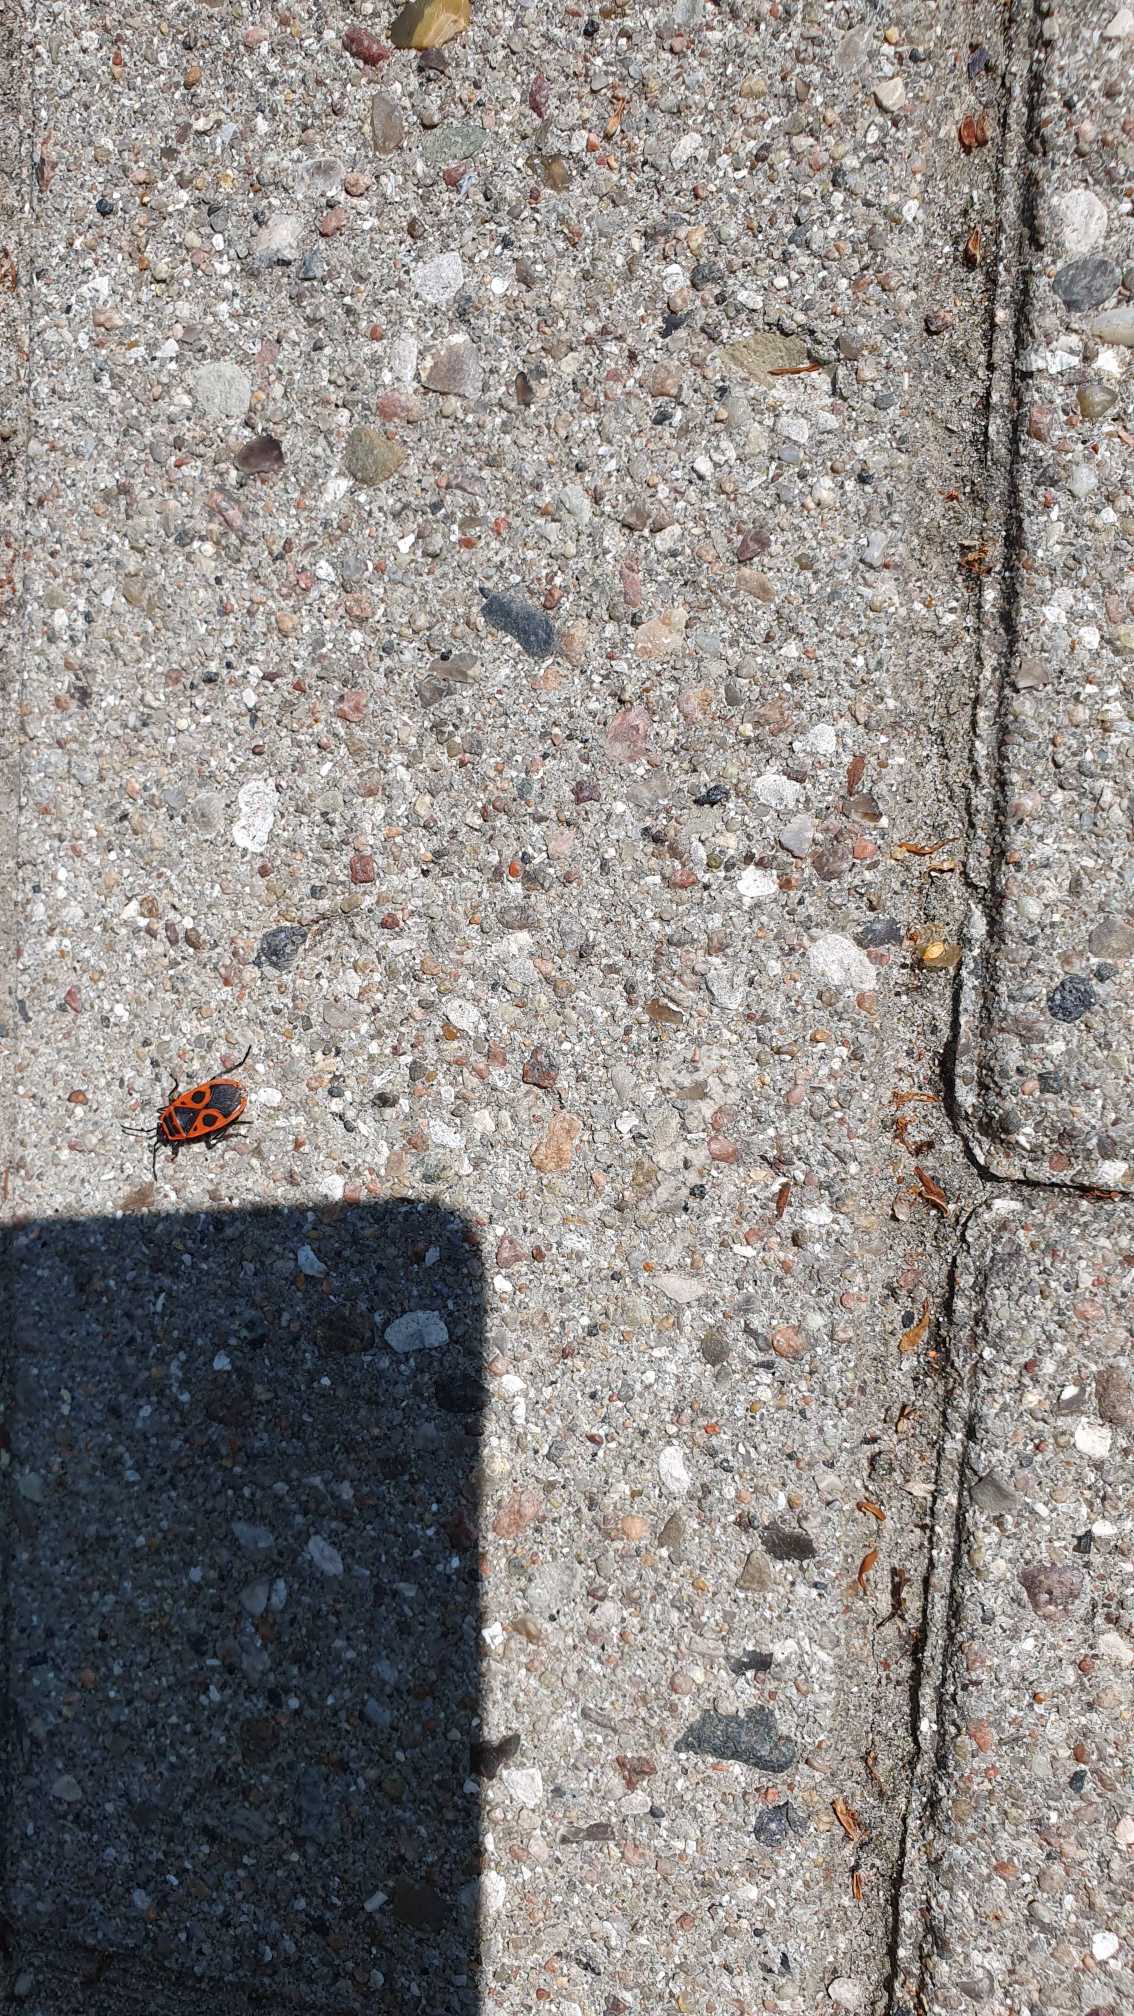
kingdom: Animalia
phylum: Arthropoda
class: Insecta
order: Hemiptera
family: Pyrrhocoridae
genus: Pyrrhocoris
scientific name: Pyrrhocoris apterus
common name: Ildtæge
